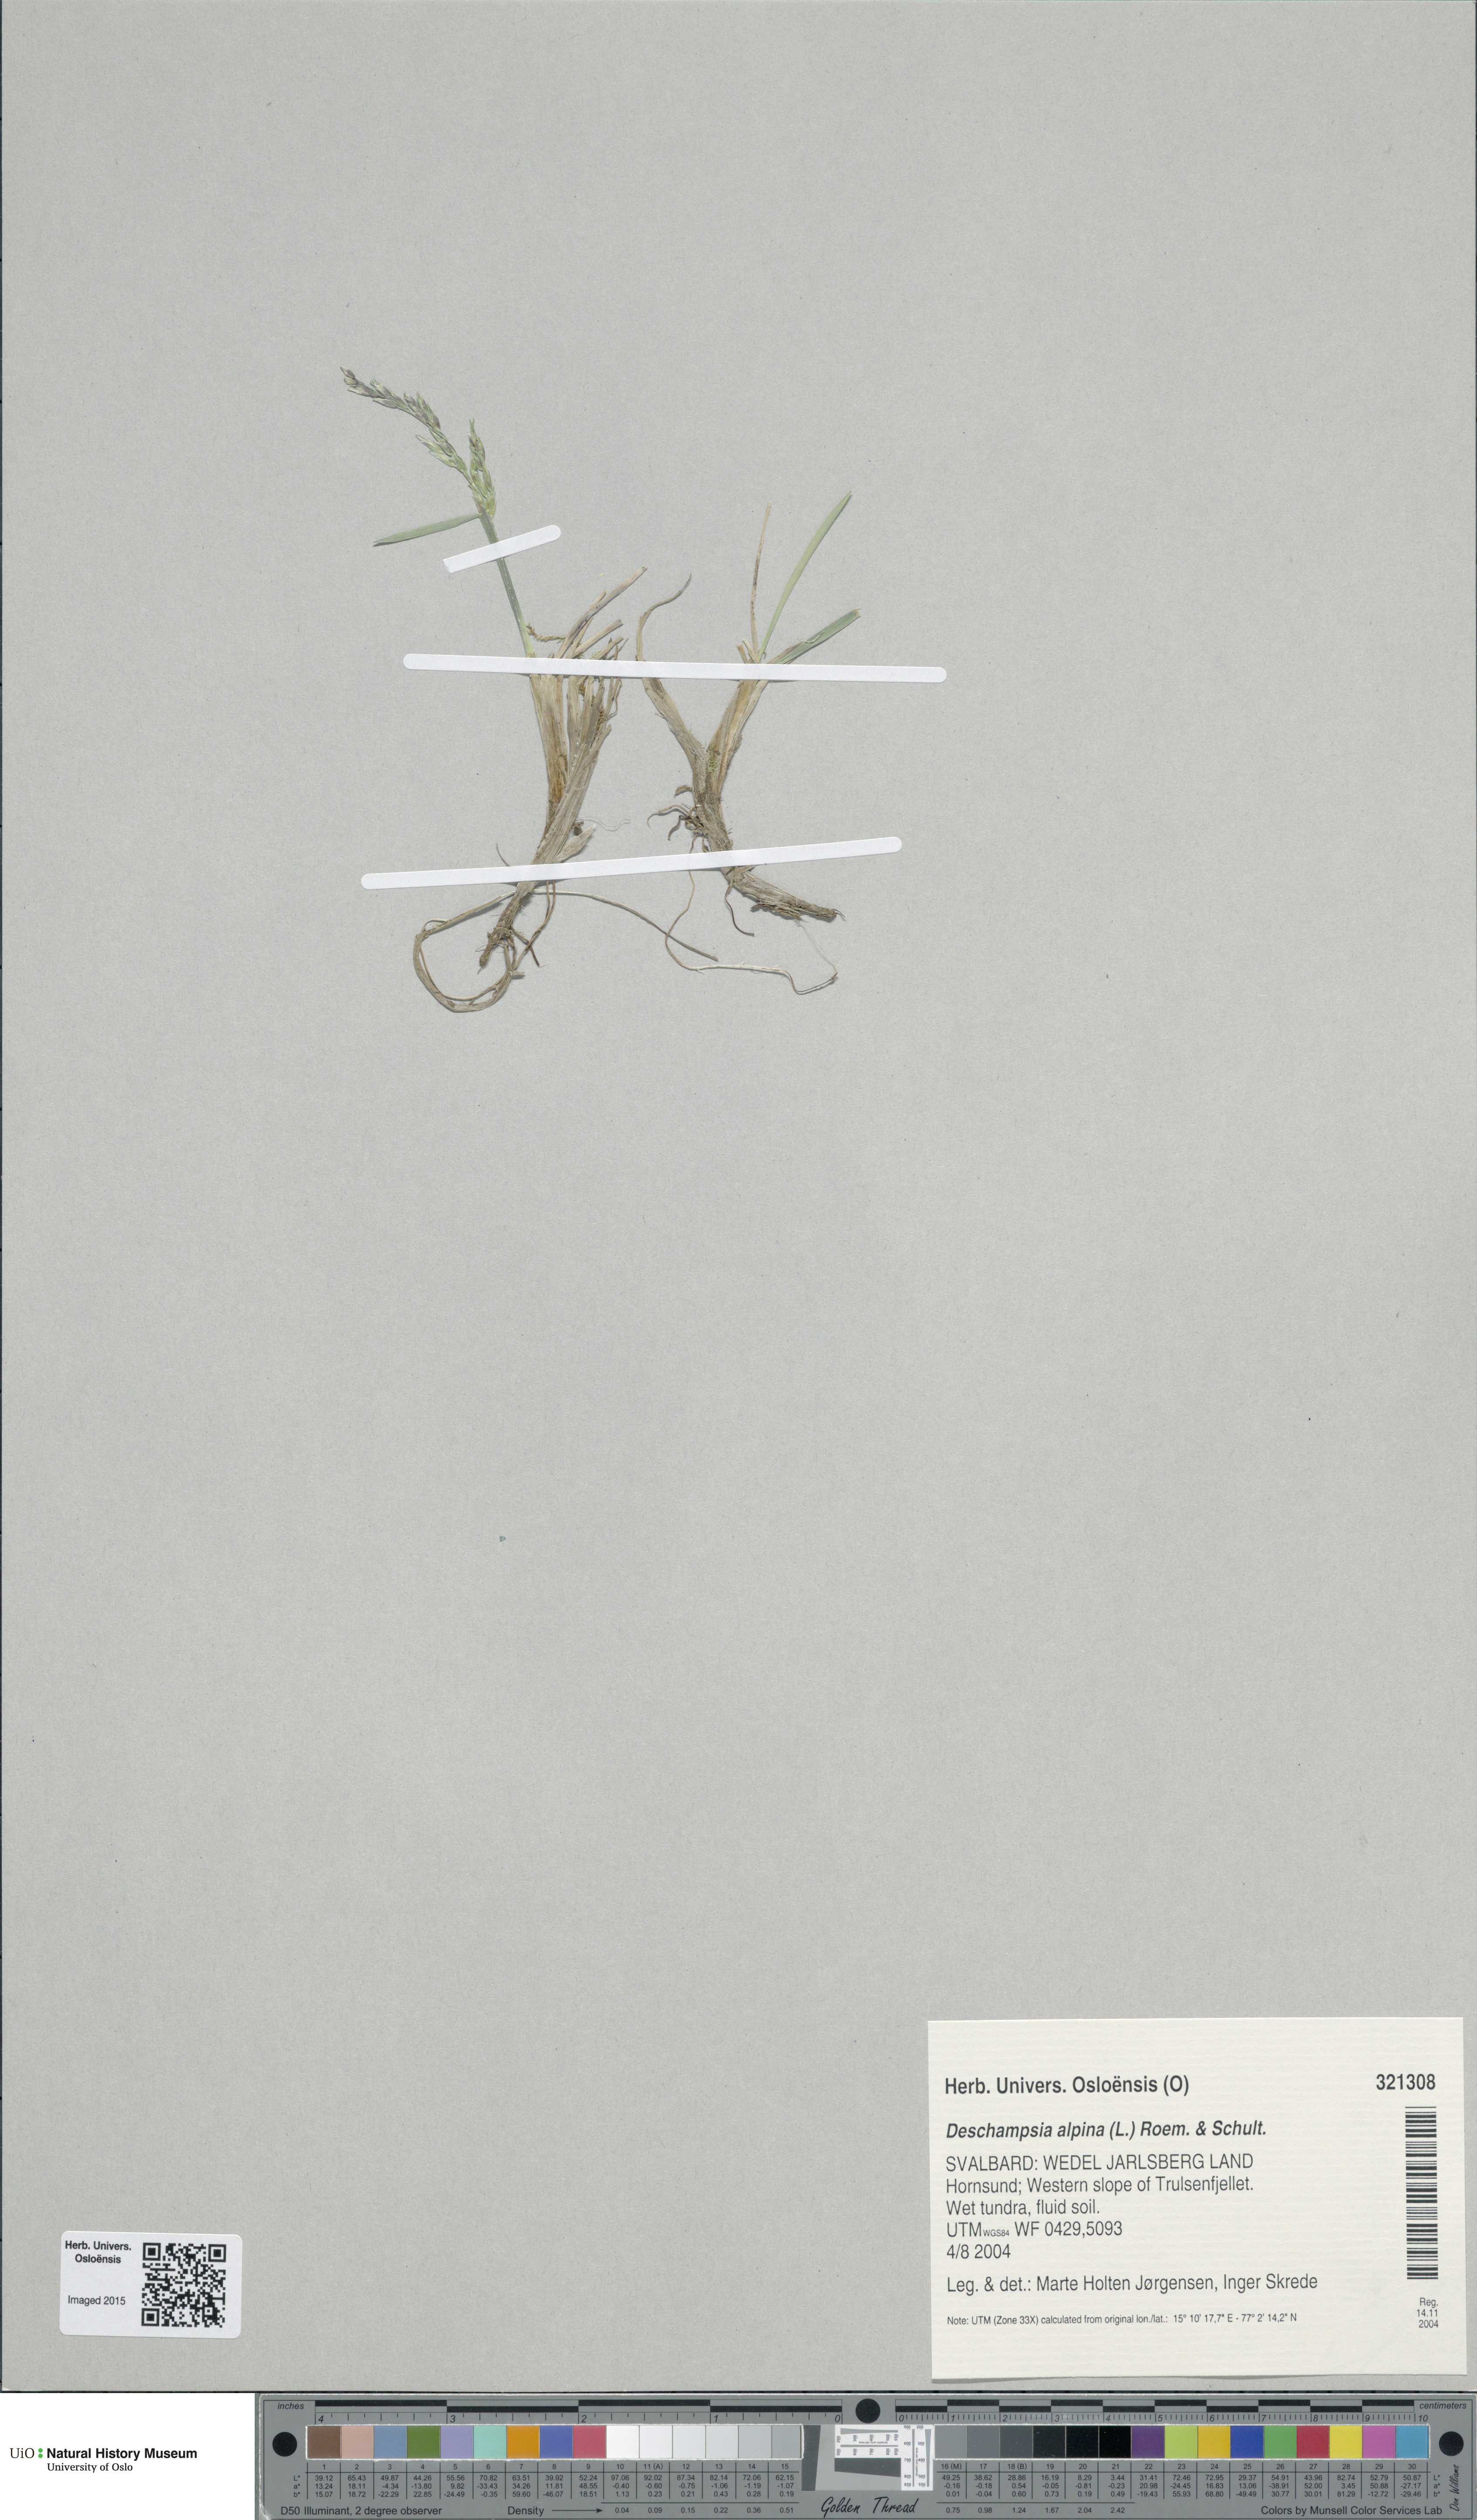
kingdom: Plantae
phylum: Tracheophyta
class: Liliopsida
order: Poales
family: Poaceae
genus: Deschampsia
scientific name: Deschampsia cespitosa
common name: Tufted hair-grass
